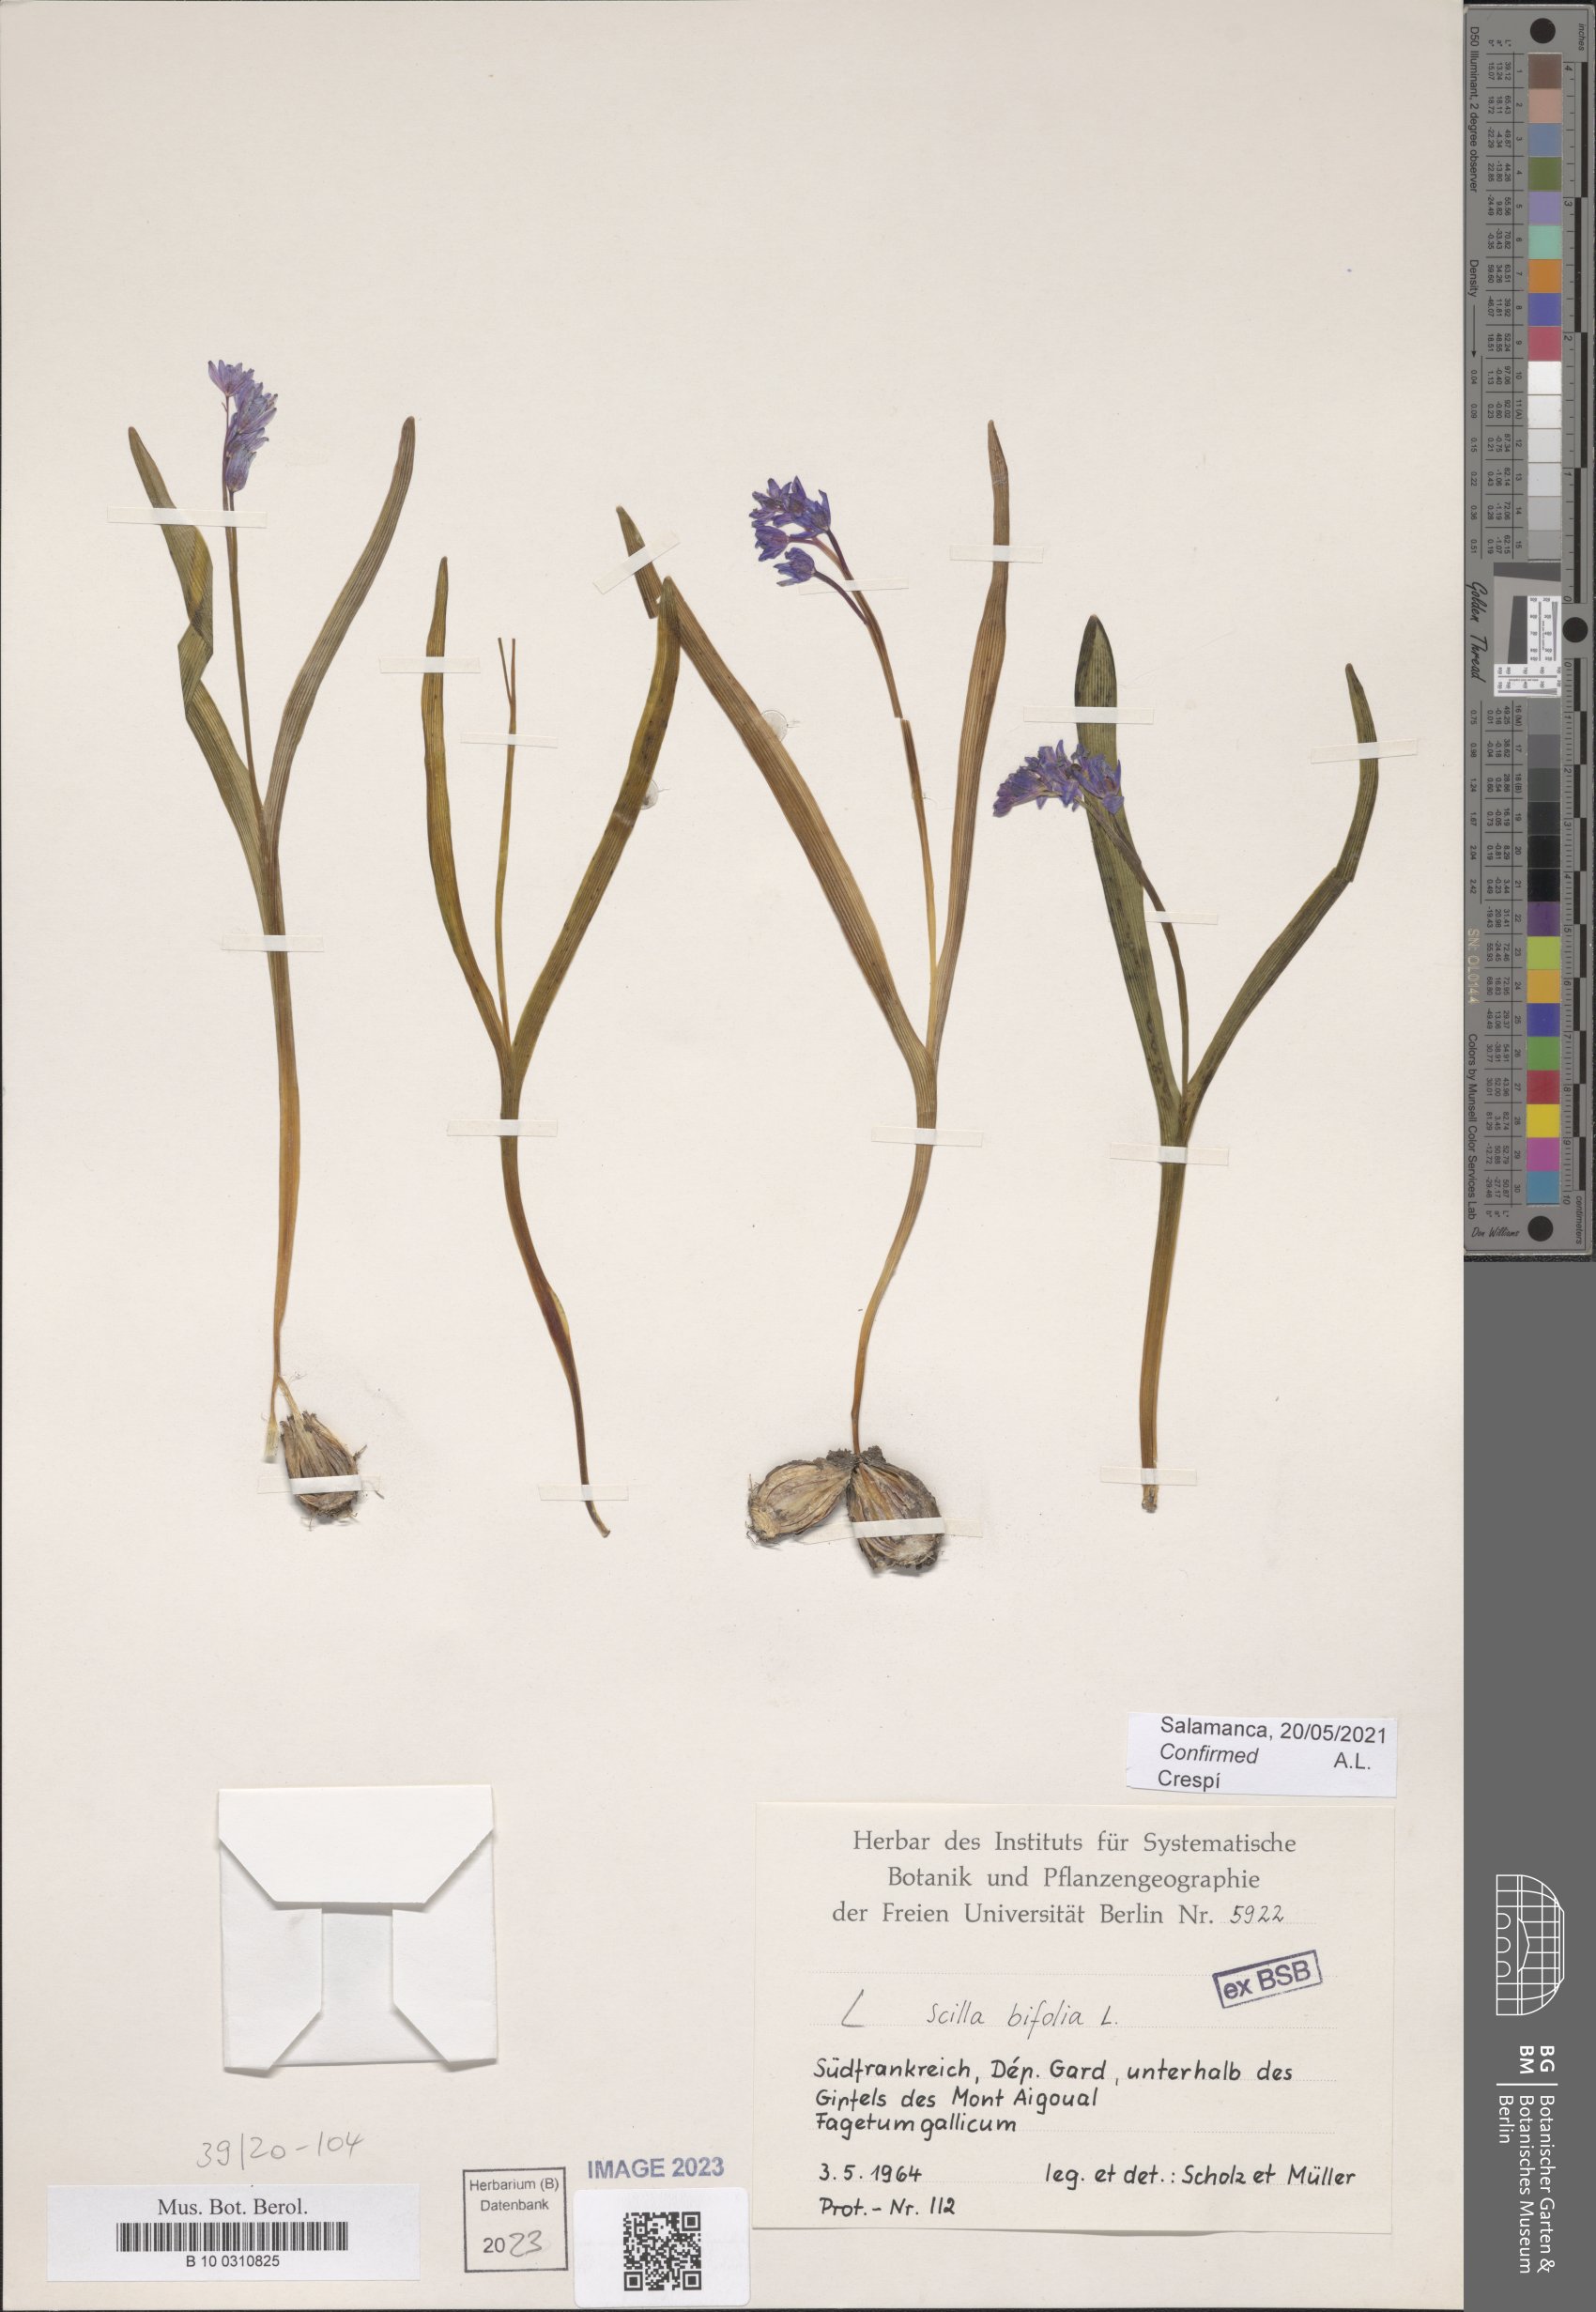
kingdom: Plantae
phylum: Tracheophyta
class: Liliopsida
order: Asparagales
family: Asparagaceae
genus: Scilla
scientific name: Scilla bifolia
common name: Alpine squill
